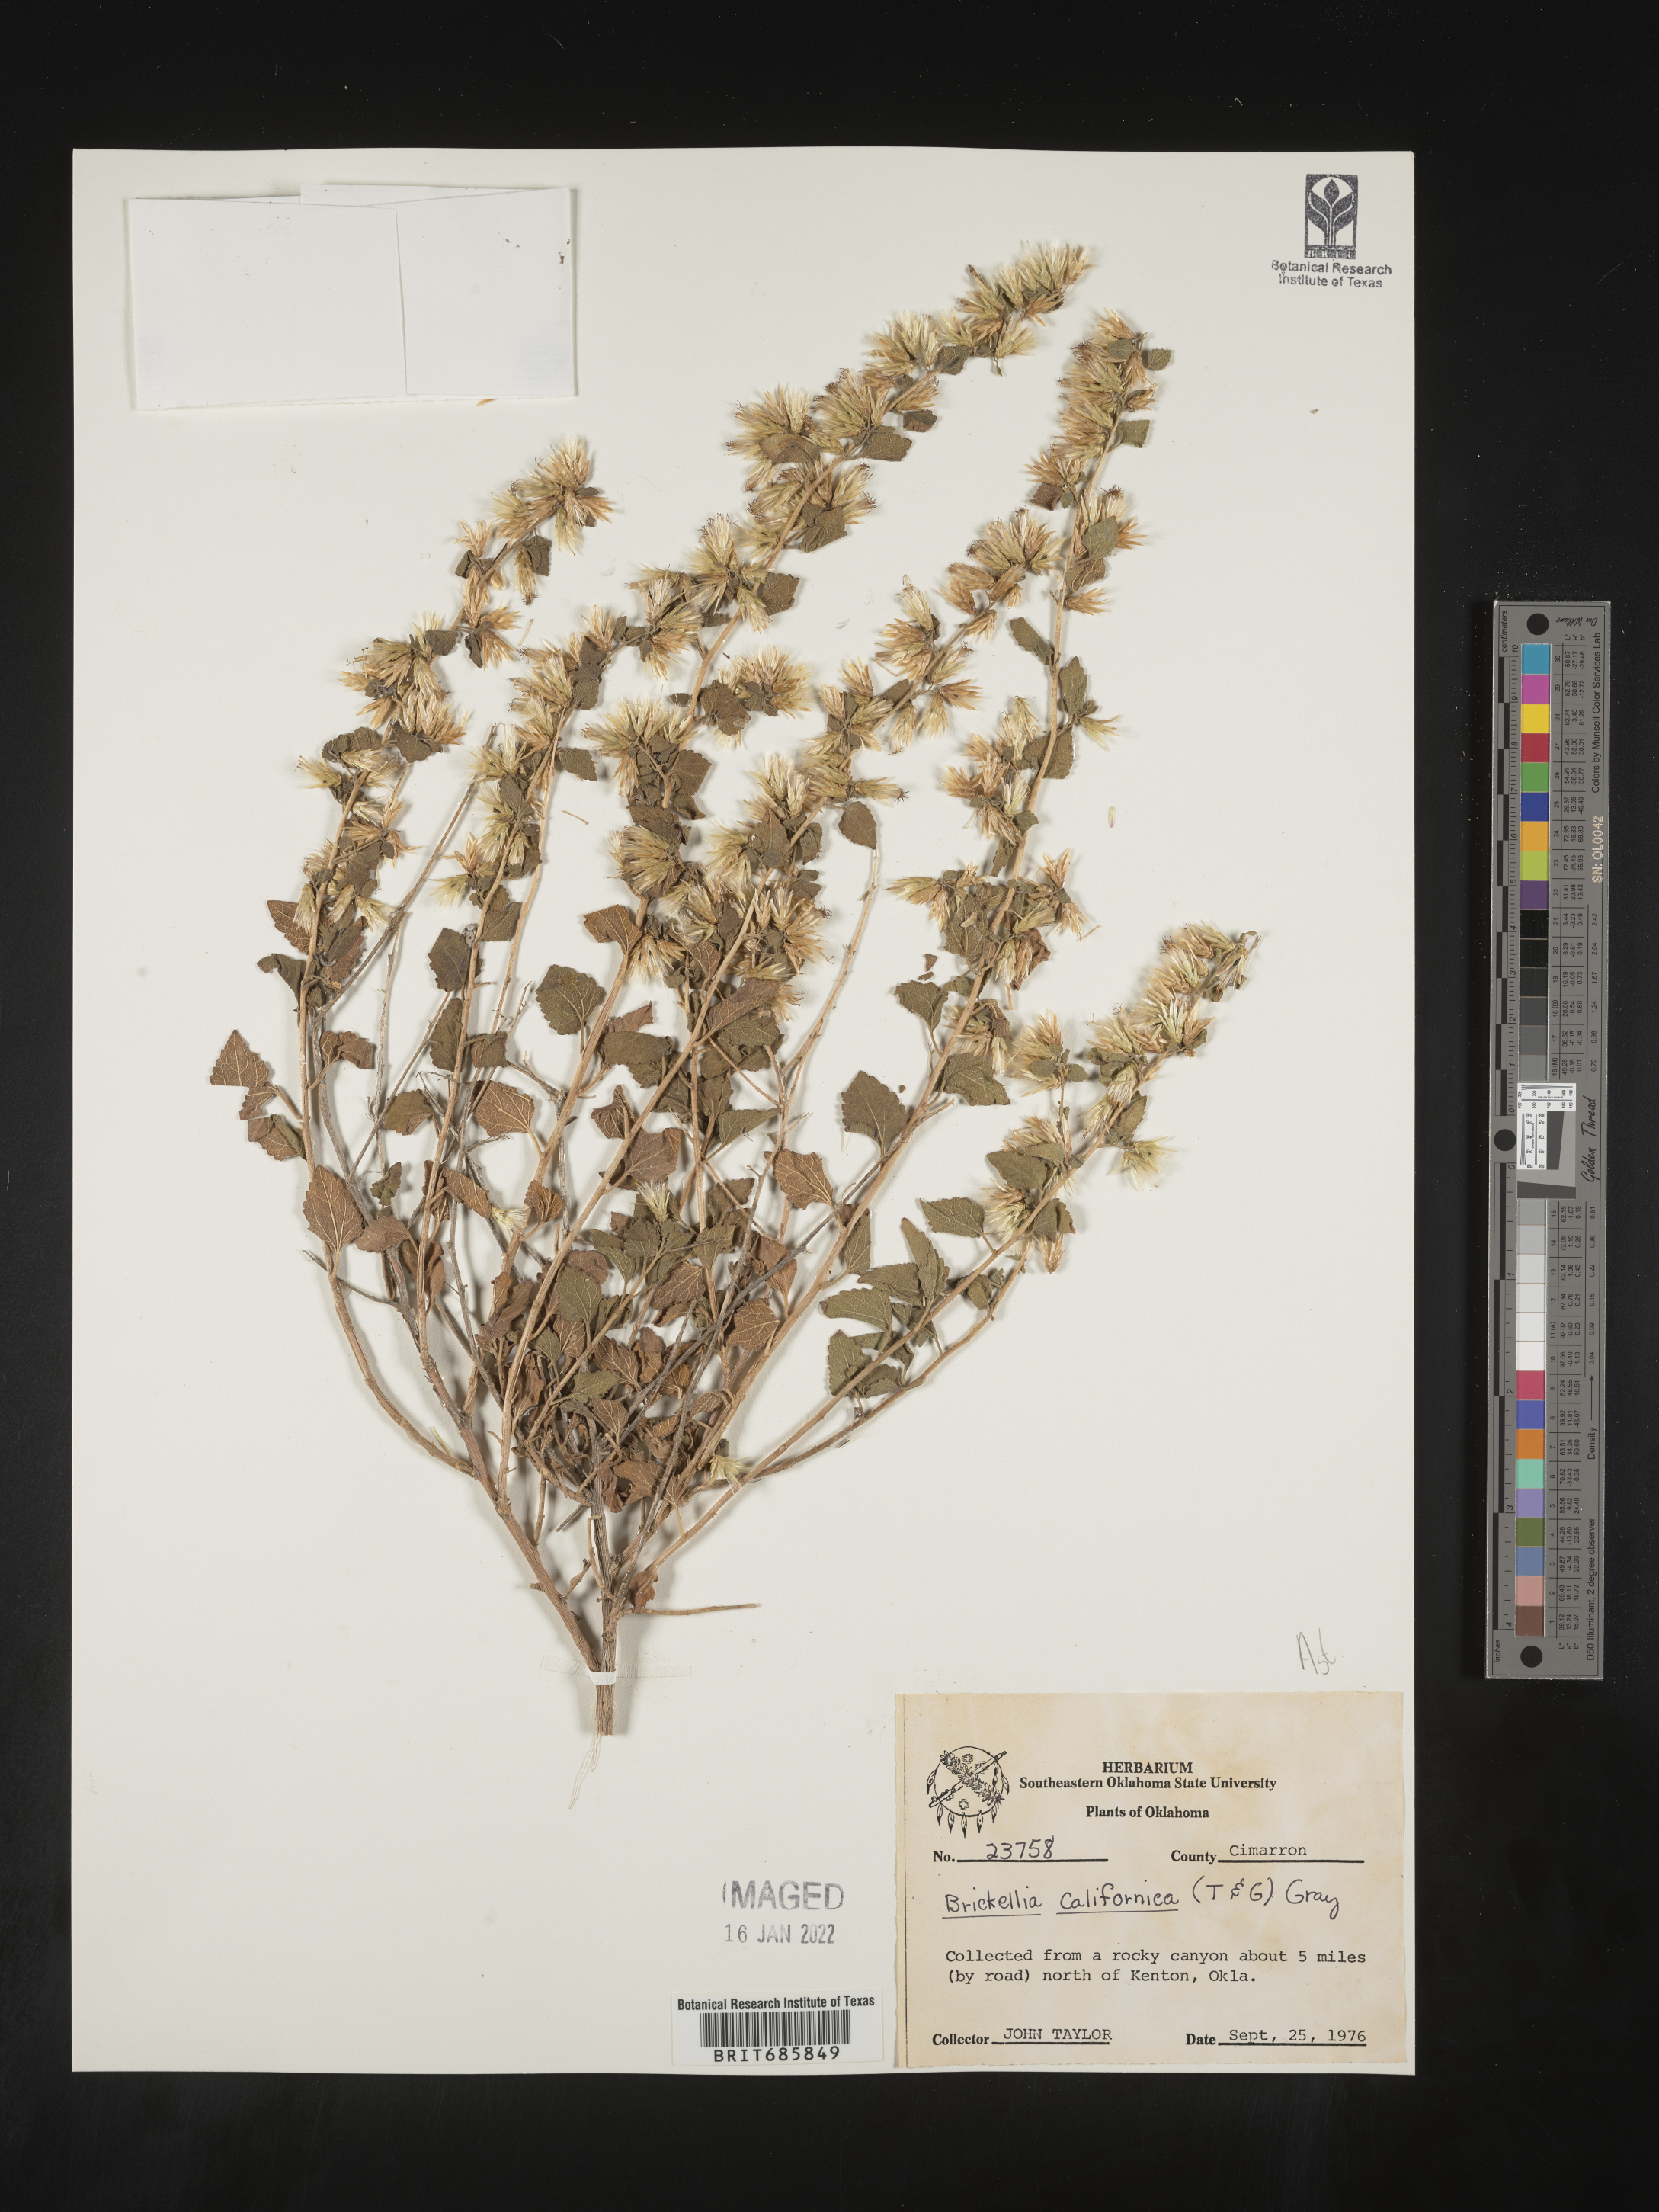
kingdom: Plantae
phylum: Tracheophyta
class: Magnoliopsida
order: Asterales
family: Asteraceae
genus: Brickellia
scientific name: Brickellia californica
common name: California brickellbush
